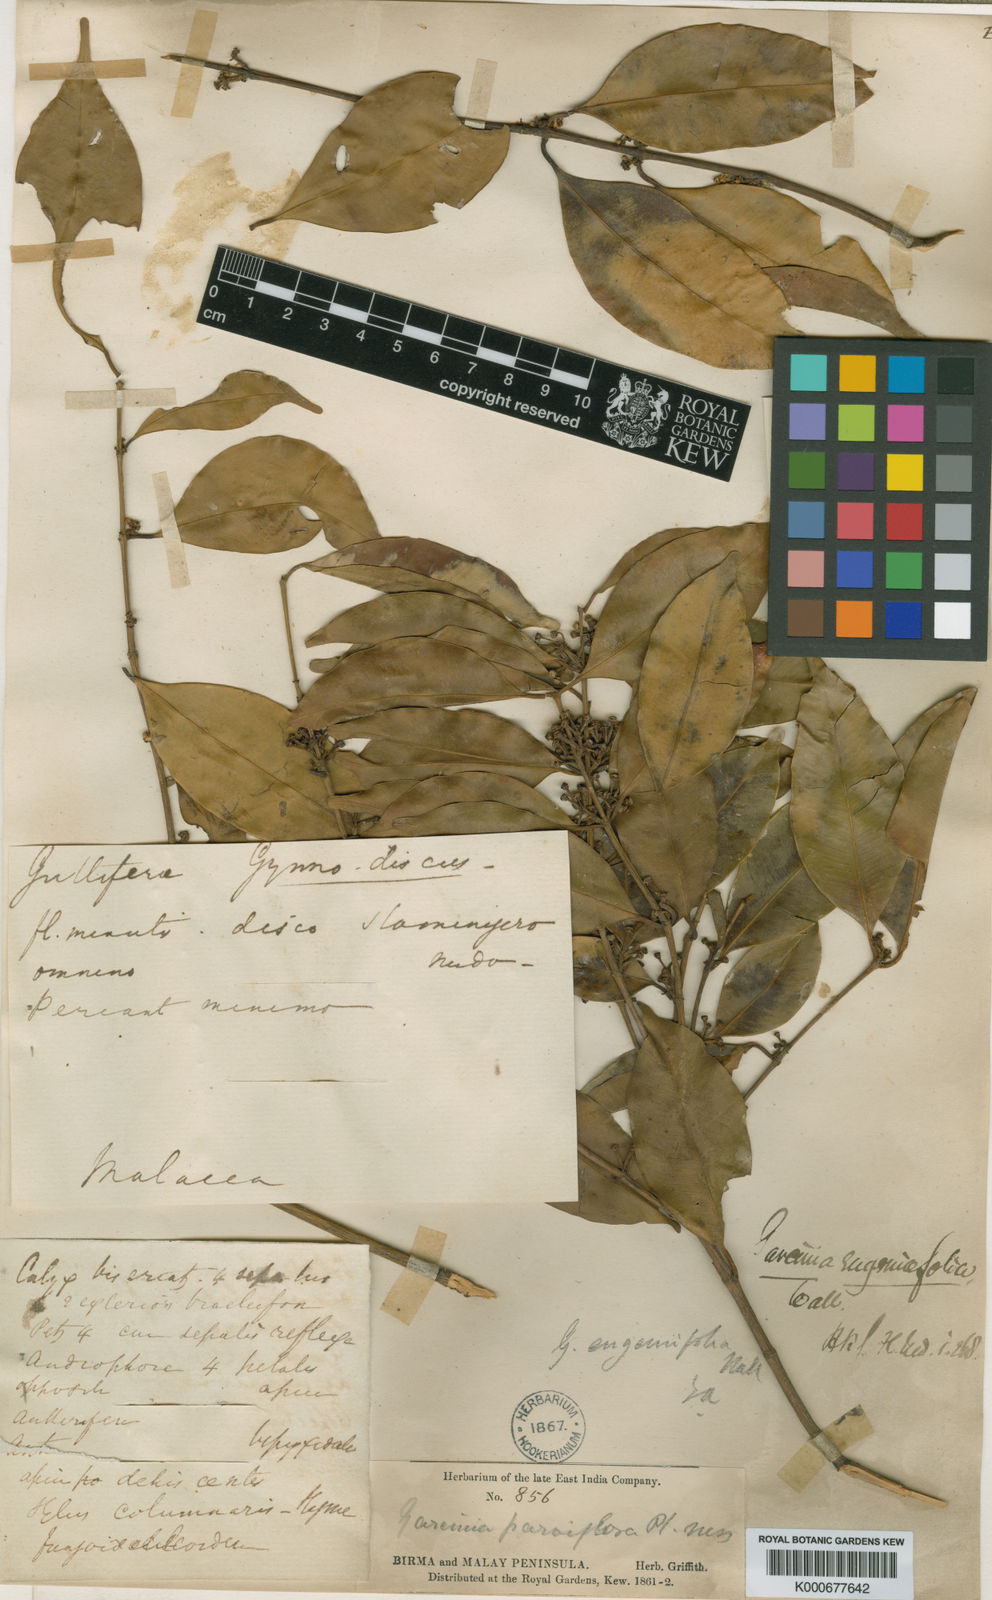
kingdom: Plantae
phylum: Tracheophyta
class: Magnoliopsida
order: Malpighiales
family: Clusiaceae
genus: Garcinia
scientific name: Garcinia
